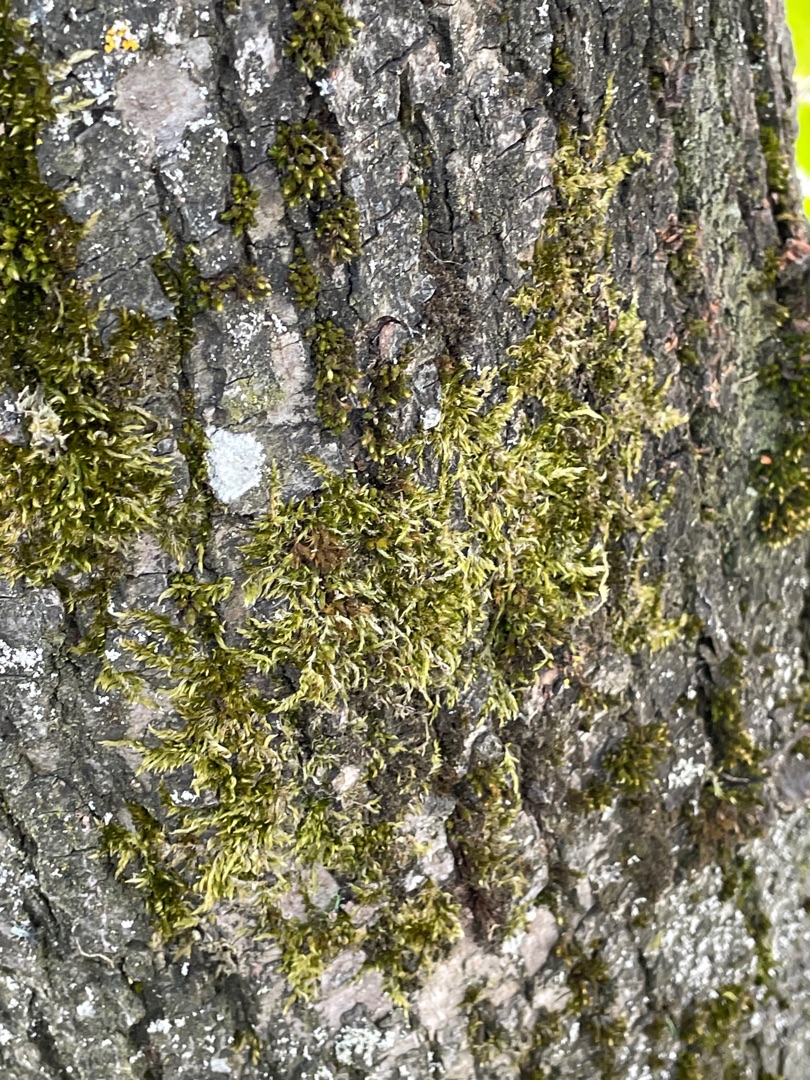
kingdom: Plantae
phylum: Bryophyta
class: Bryopsida
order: Hypnales
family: Hypnaceae
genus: Hypnum
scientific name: Hypnum
